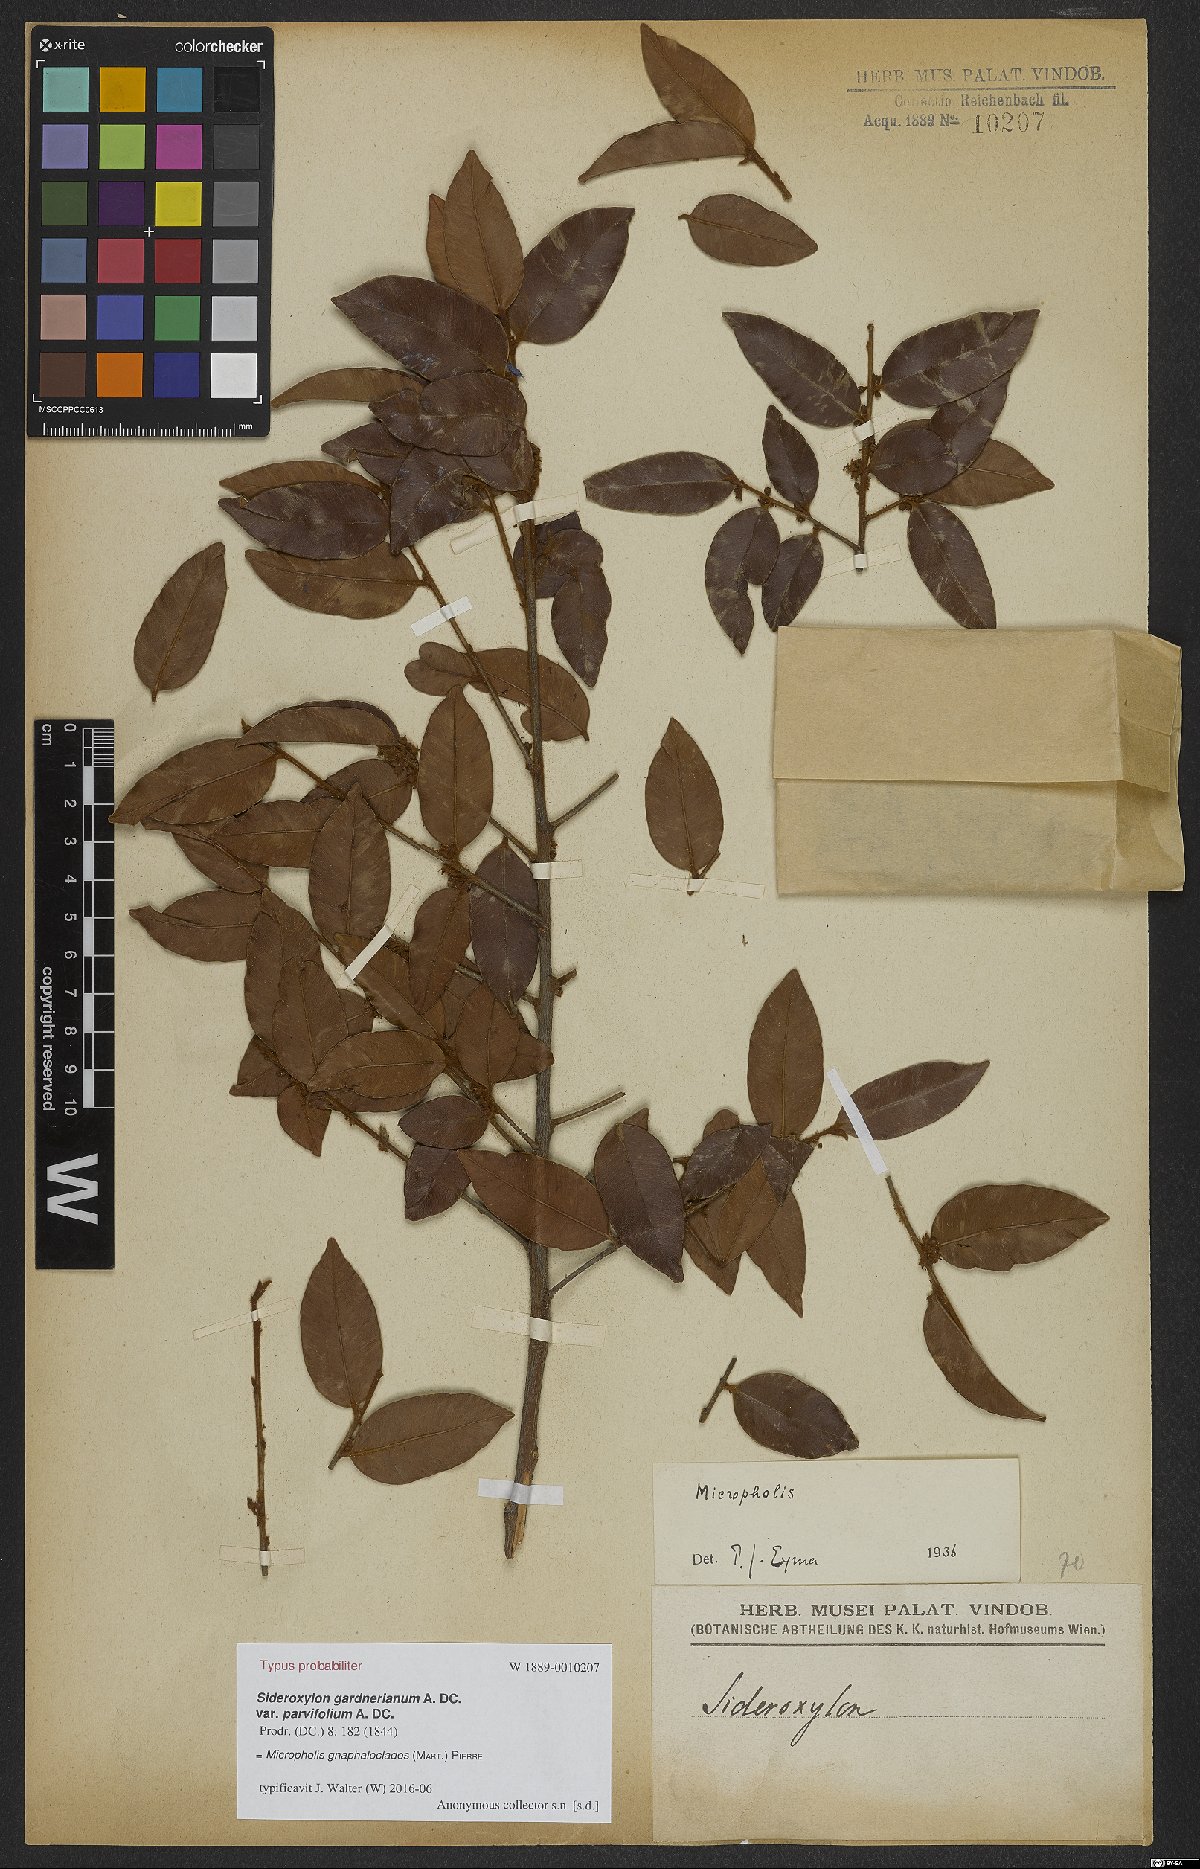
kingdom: Plantae
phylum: Tracheophyta
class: Magnoliopsida
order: Ericales
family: Sapotaceae
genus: Micropholis
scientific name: Micropholis gnaphaloclados
